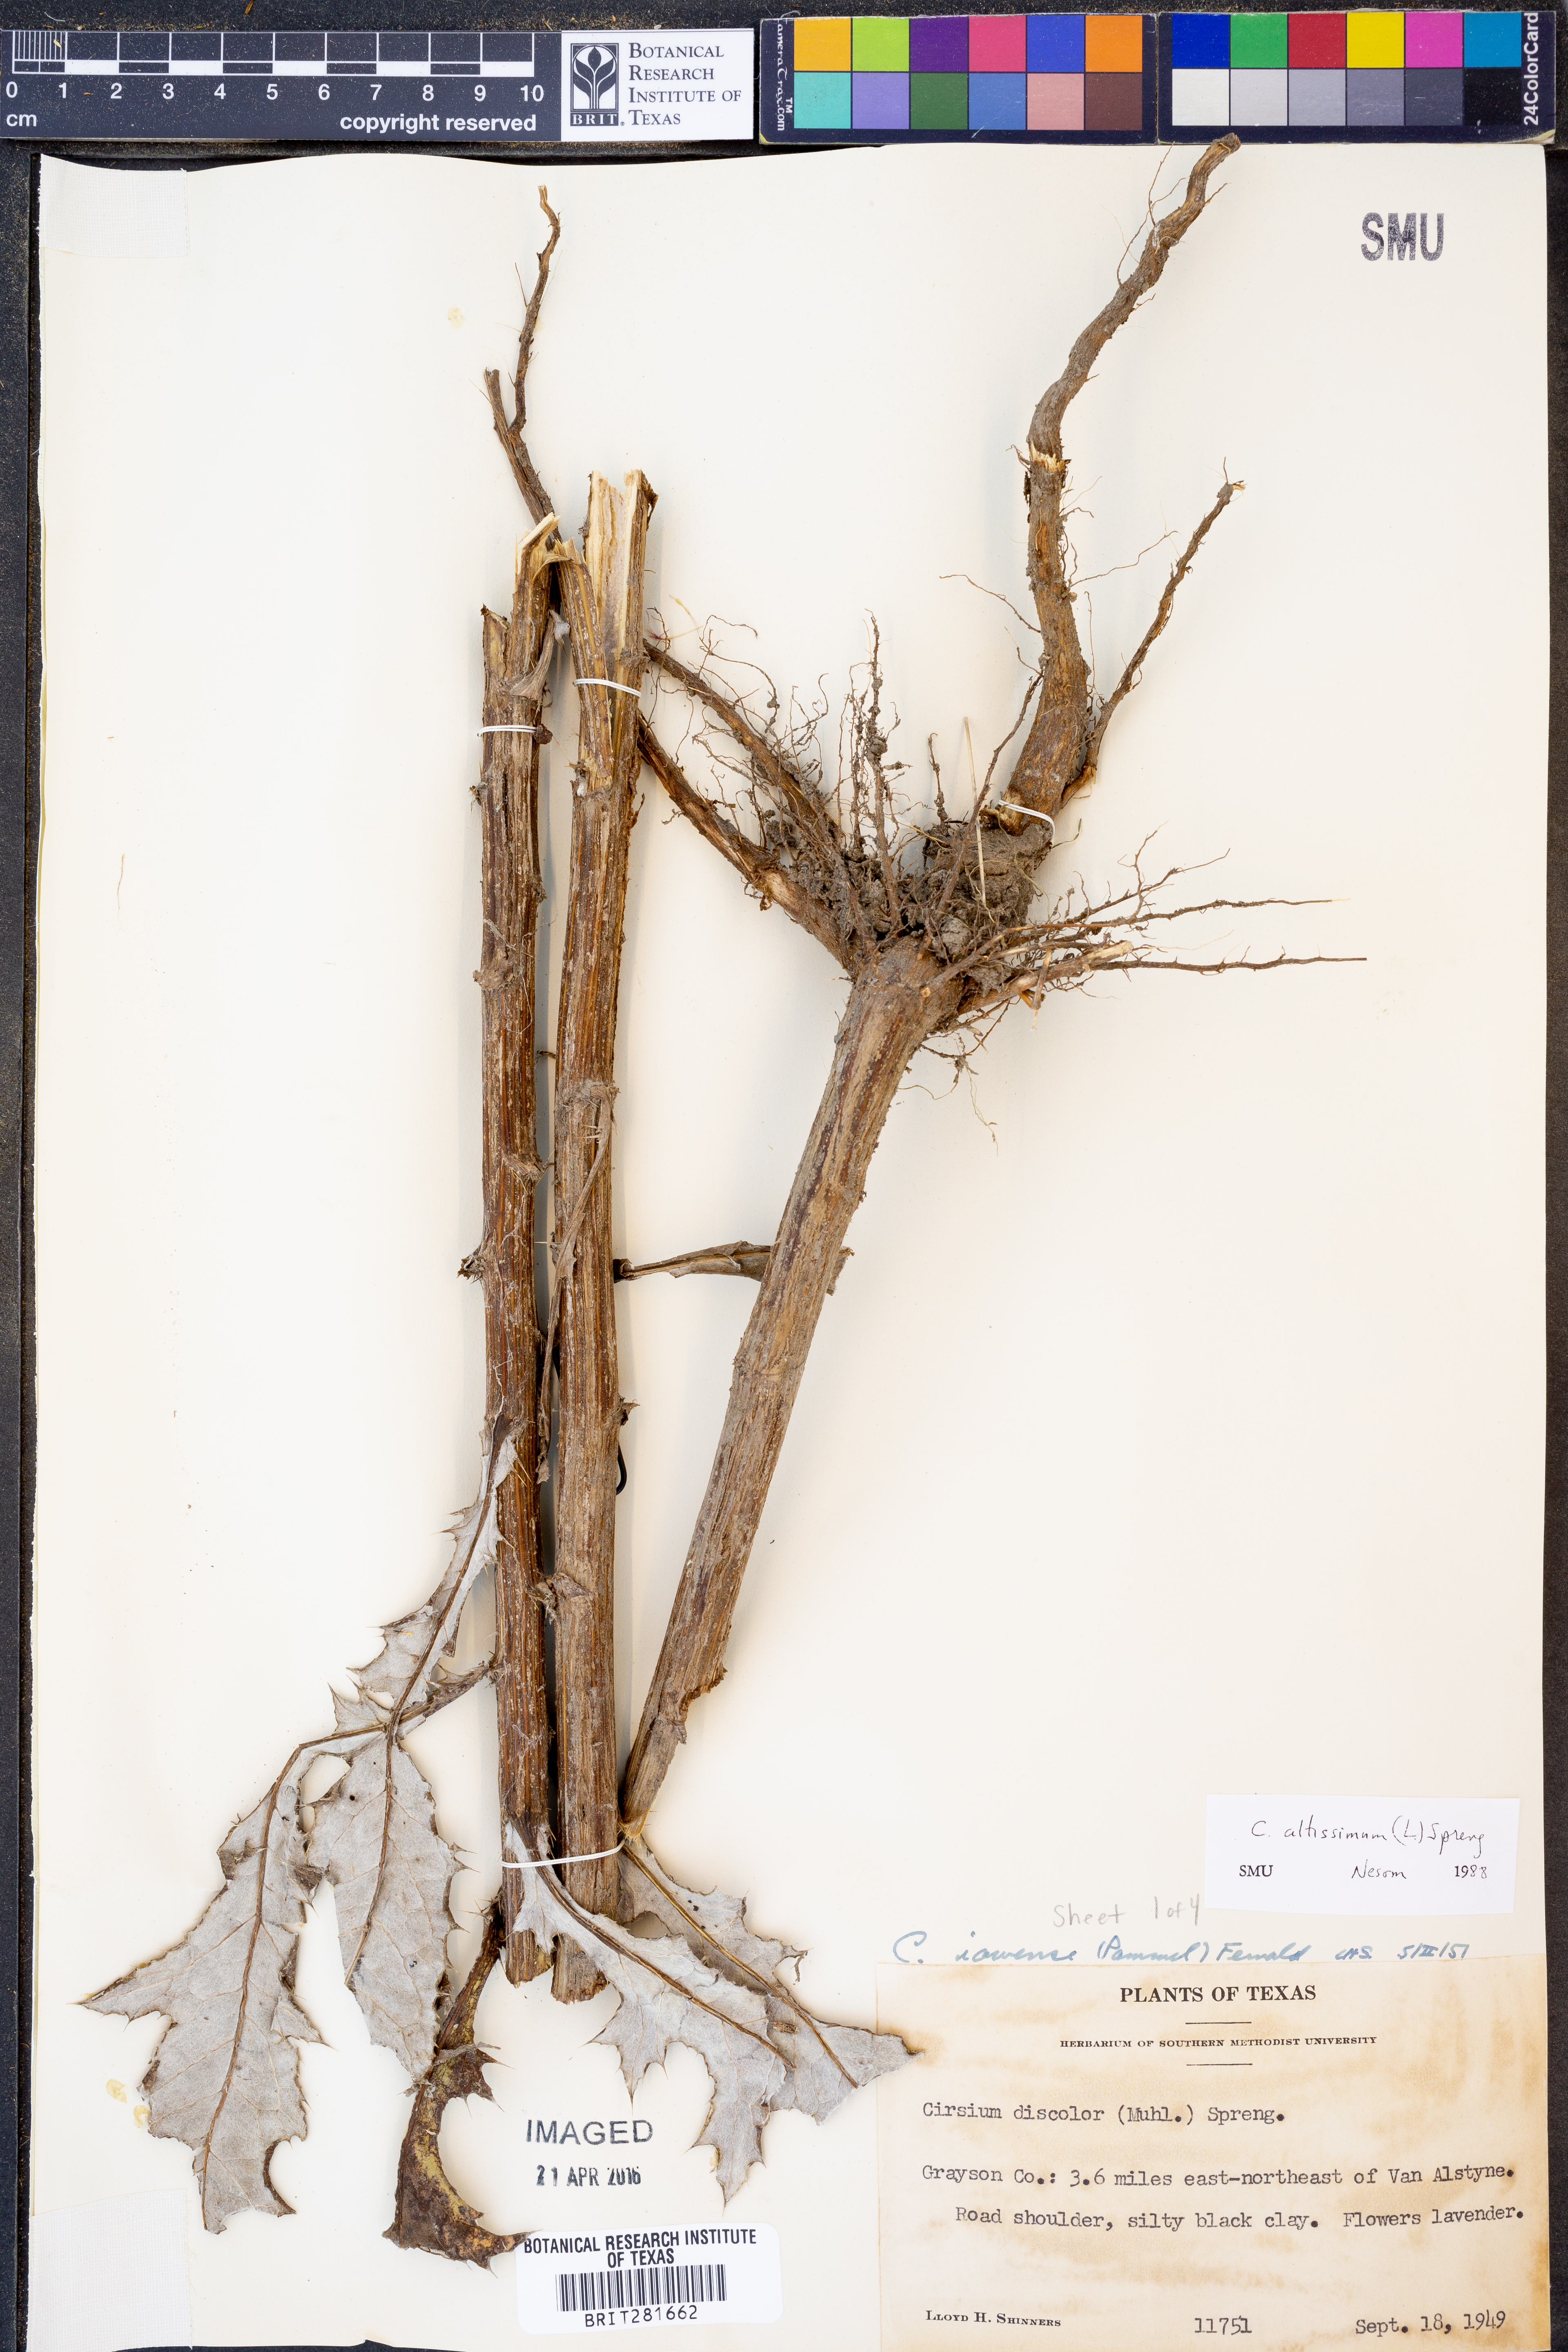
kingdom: Plantae
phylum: Tracheophyta
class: Magnoliopsida
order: Asterales
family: Asteraceae
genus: Cirsium
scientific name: Cirsium altissimum
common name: Roadside thistle
